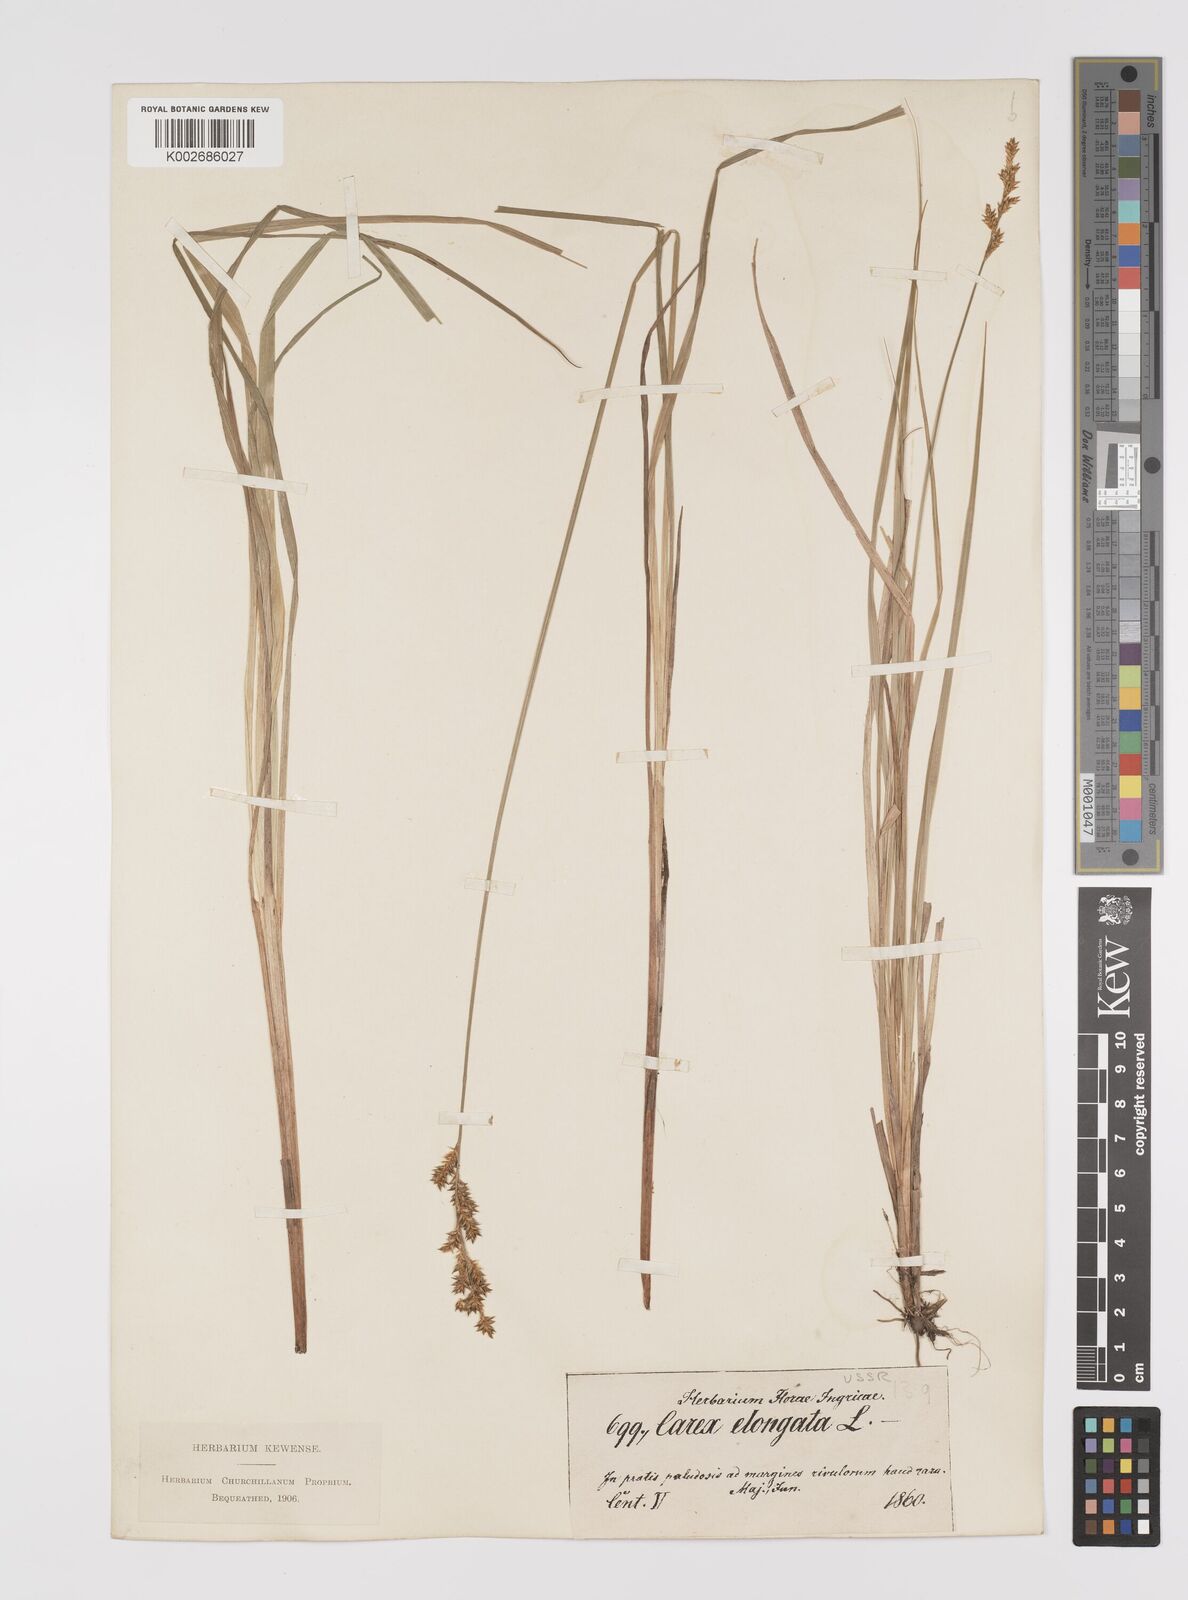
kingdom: Plantae
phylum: Tracheophyta
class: Liliopsida
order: Poales
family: Cyperaceae
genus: Carex
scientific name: Carex elongata
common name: Elongated sedge
